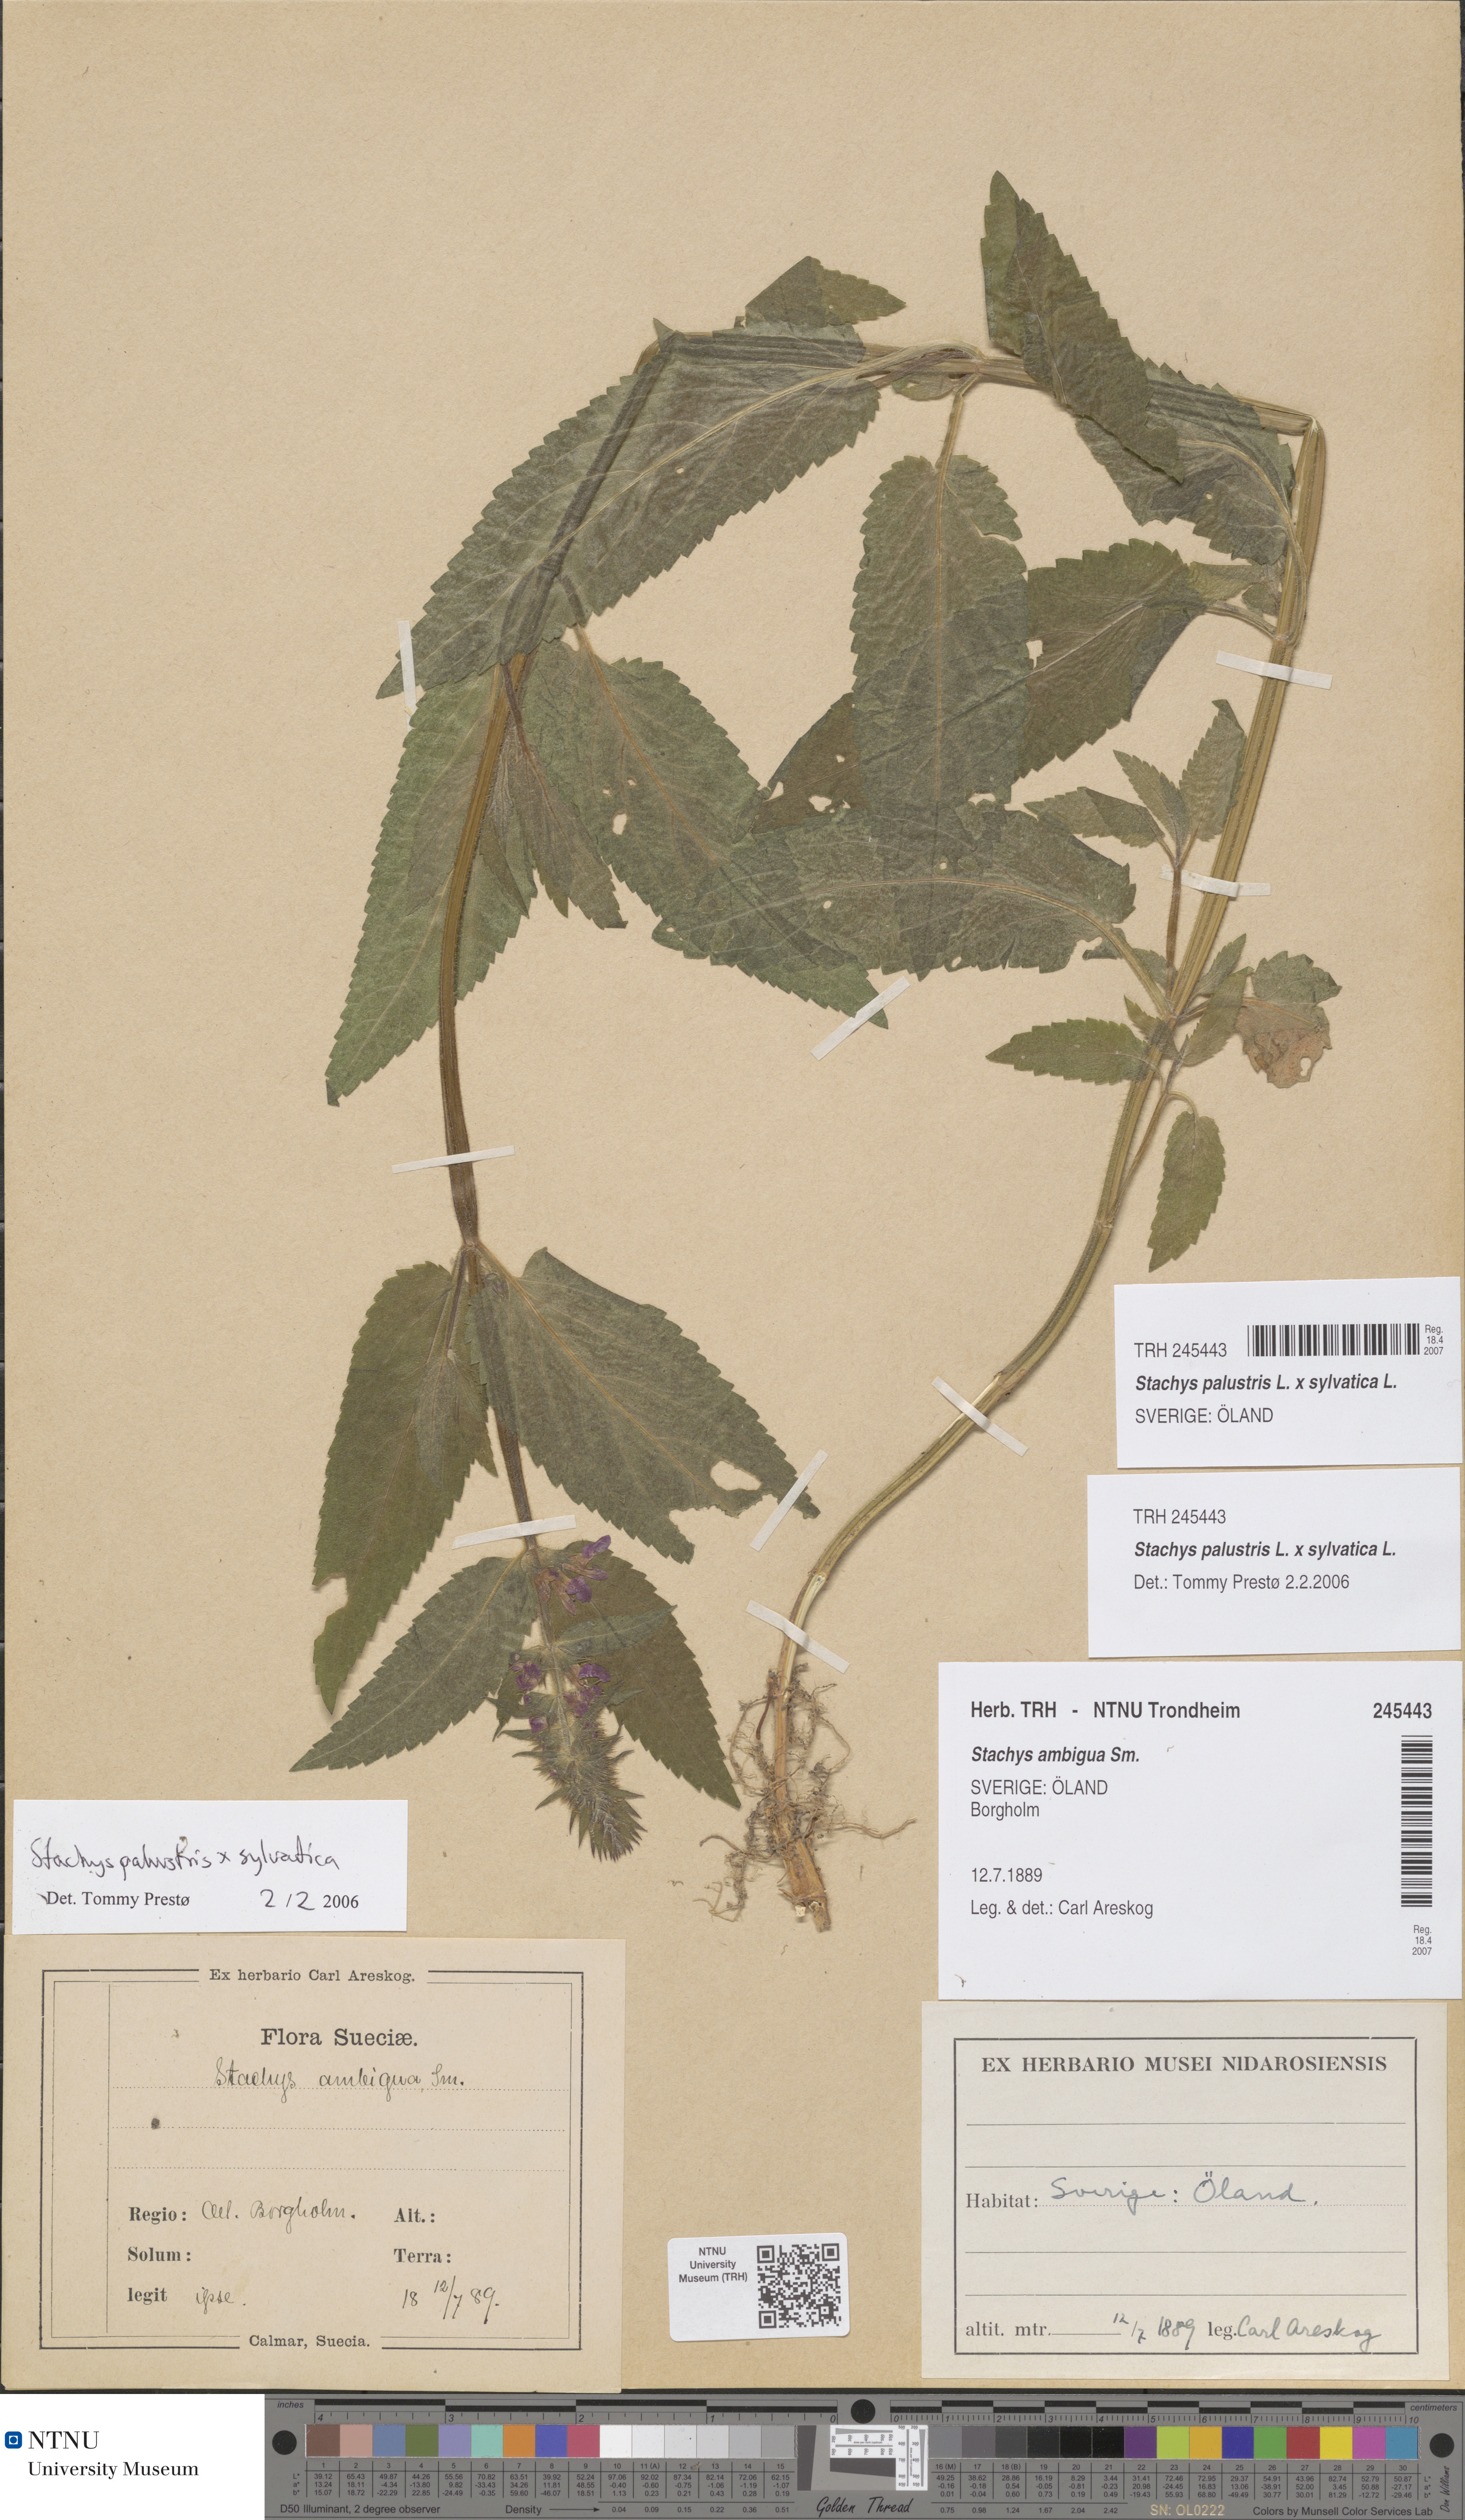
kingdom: Plantae
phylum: Tracheophyta
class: Magnoliopsida
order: Lamiales
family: Lamiaceae
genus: Stachys
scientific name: Stachys ambigua
